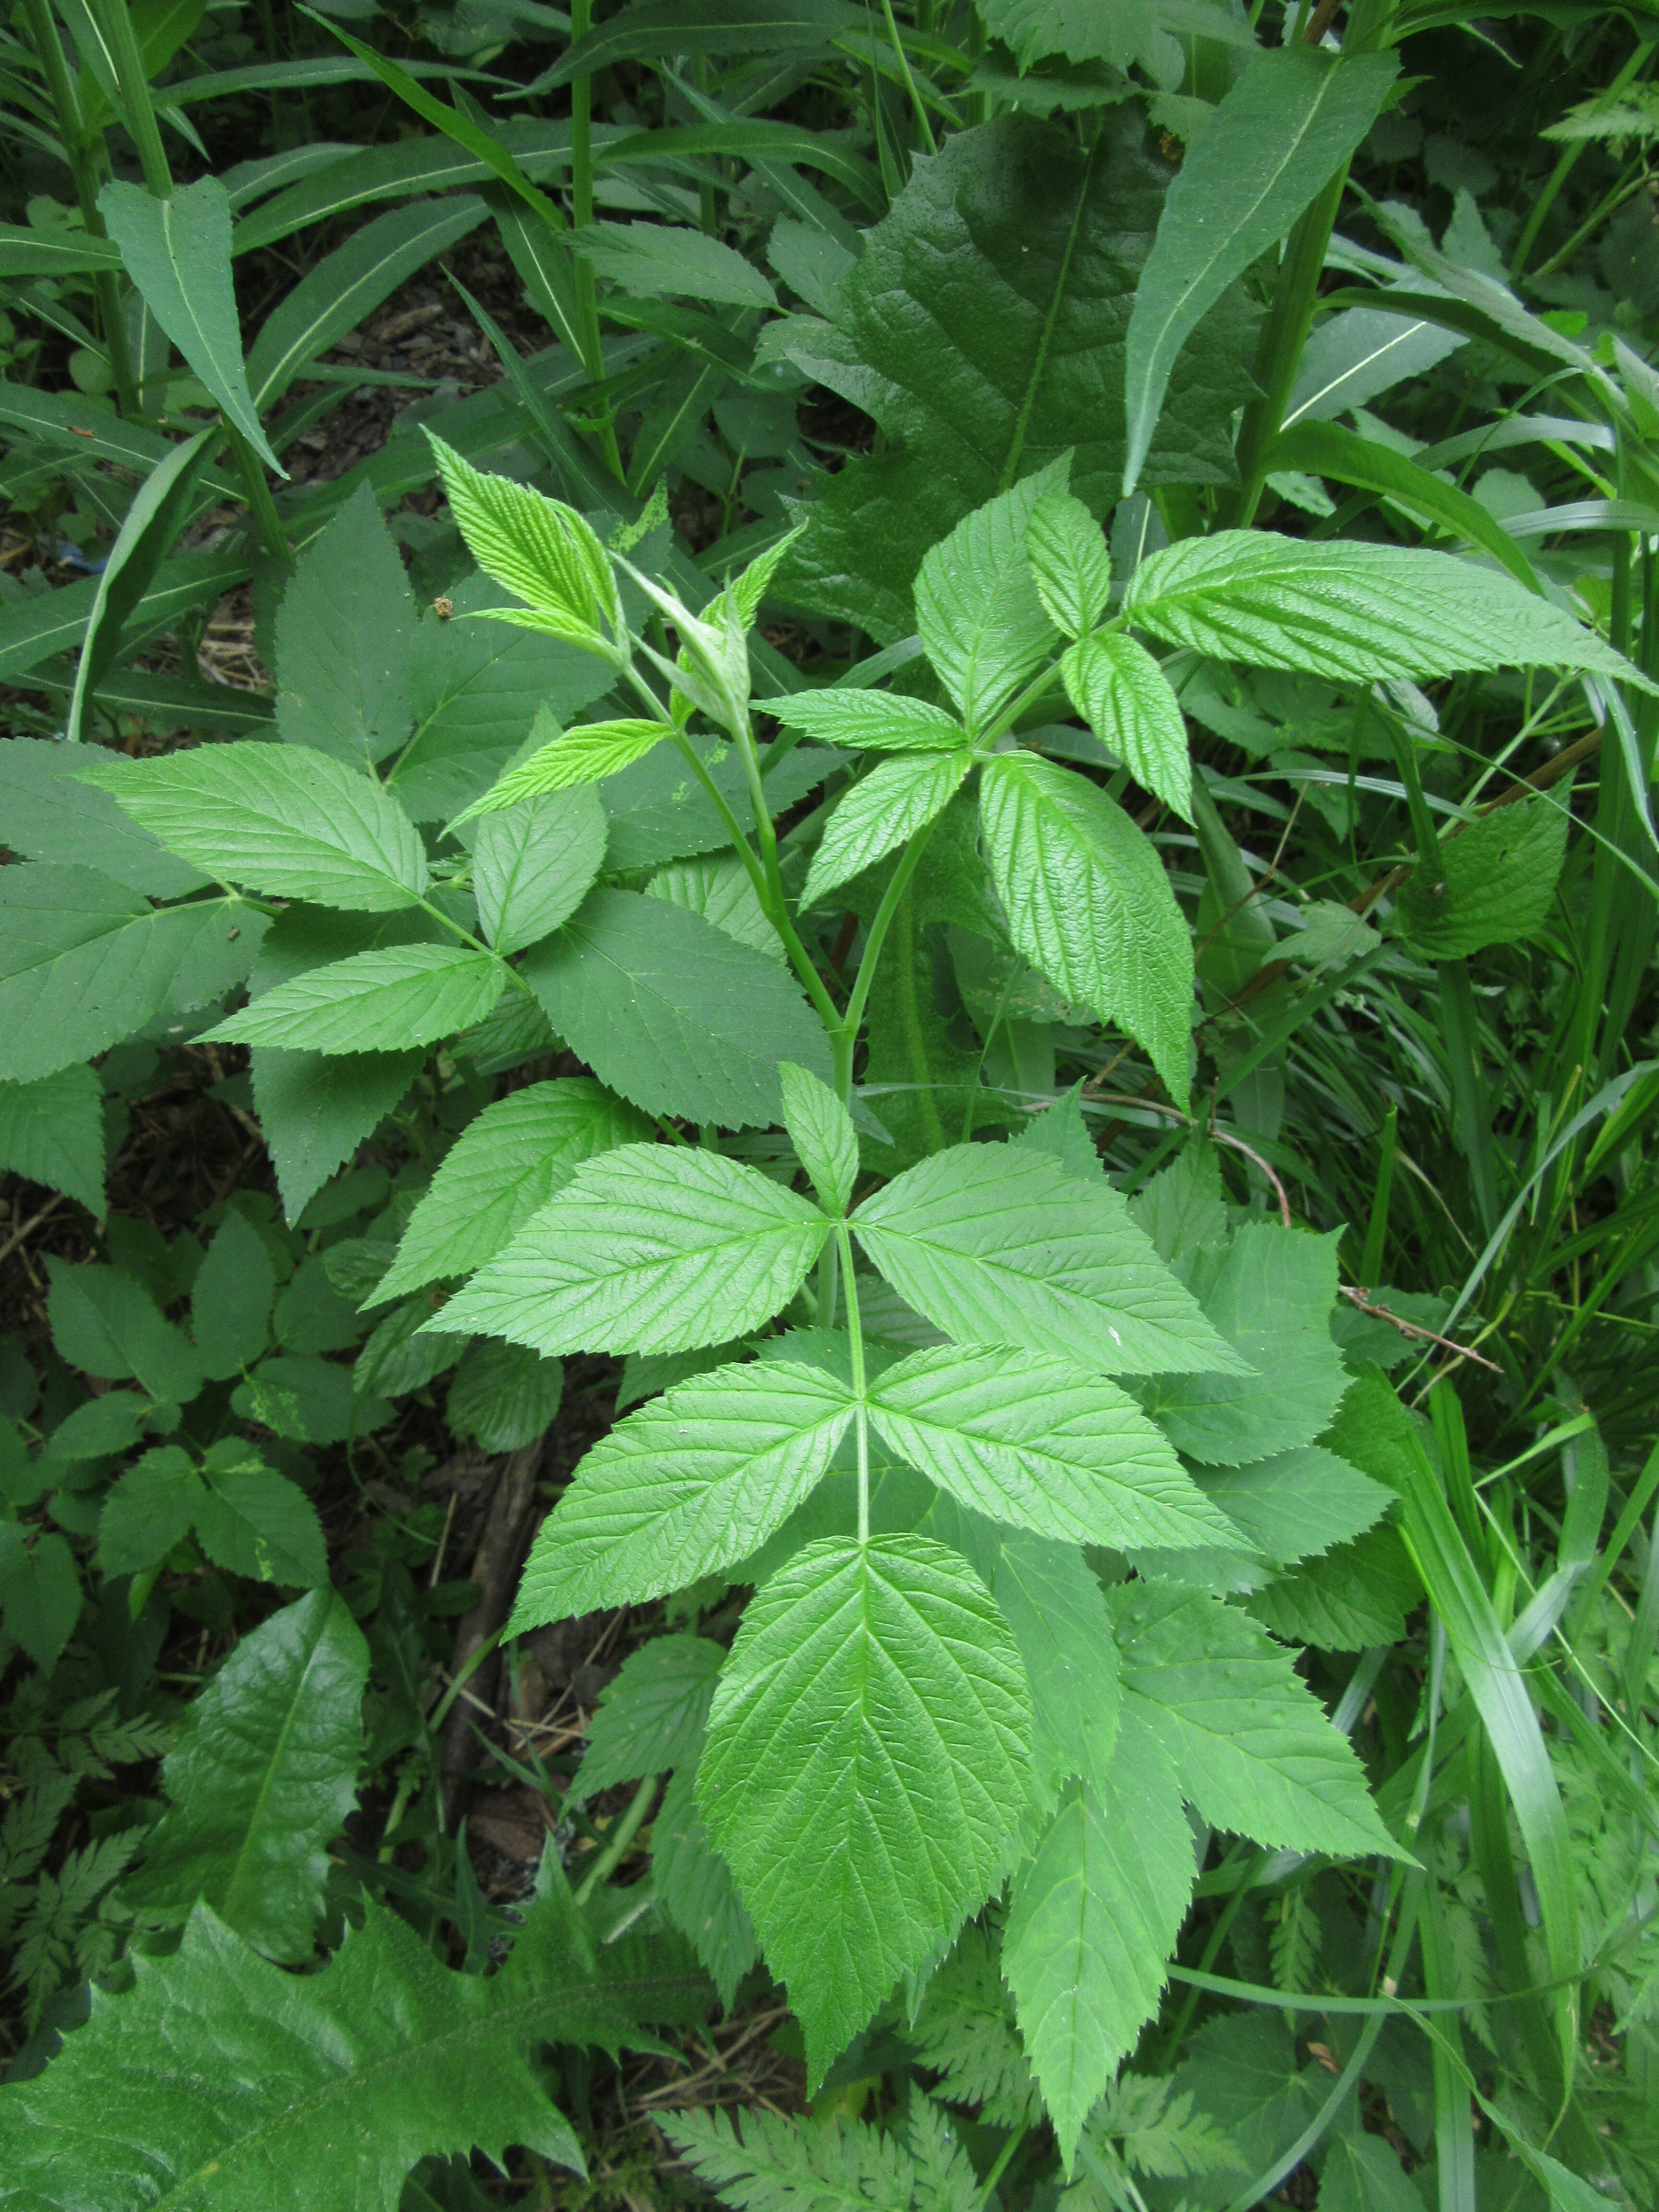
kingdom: Plantae
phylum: Tracheophyta
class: Magnoliopsida
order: Rosales
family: Rosaceae
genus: Rubus
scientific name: Rubus idaeus
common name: Raspberry
